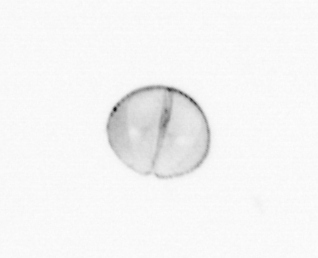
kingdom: Chromista
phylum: Ochrophyta
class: Bacillariophyceae
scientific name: Bacillariophyceae
